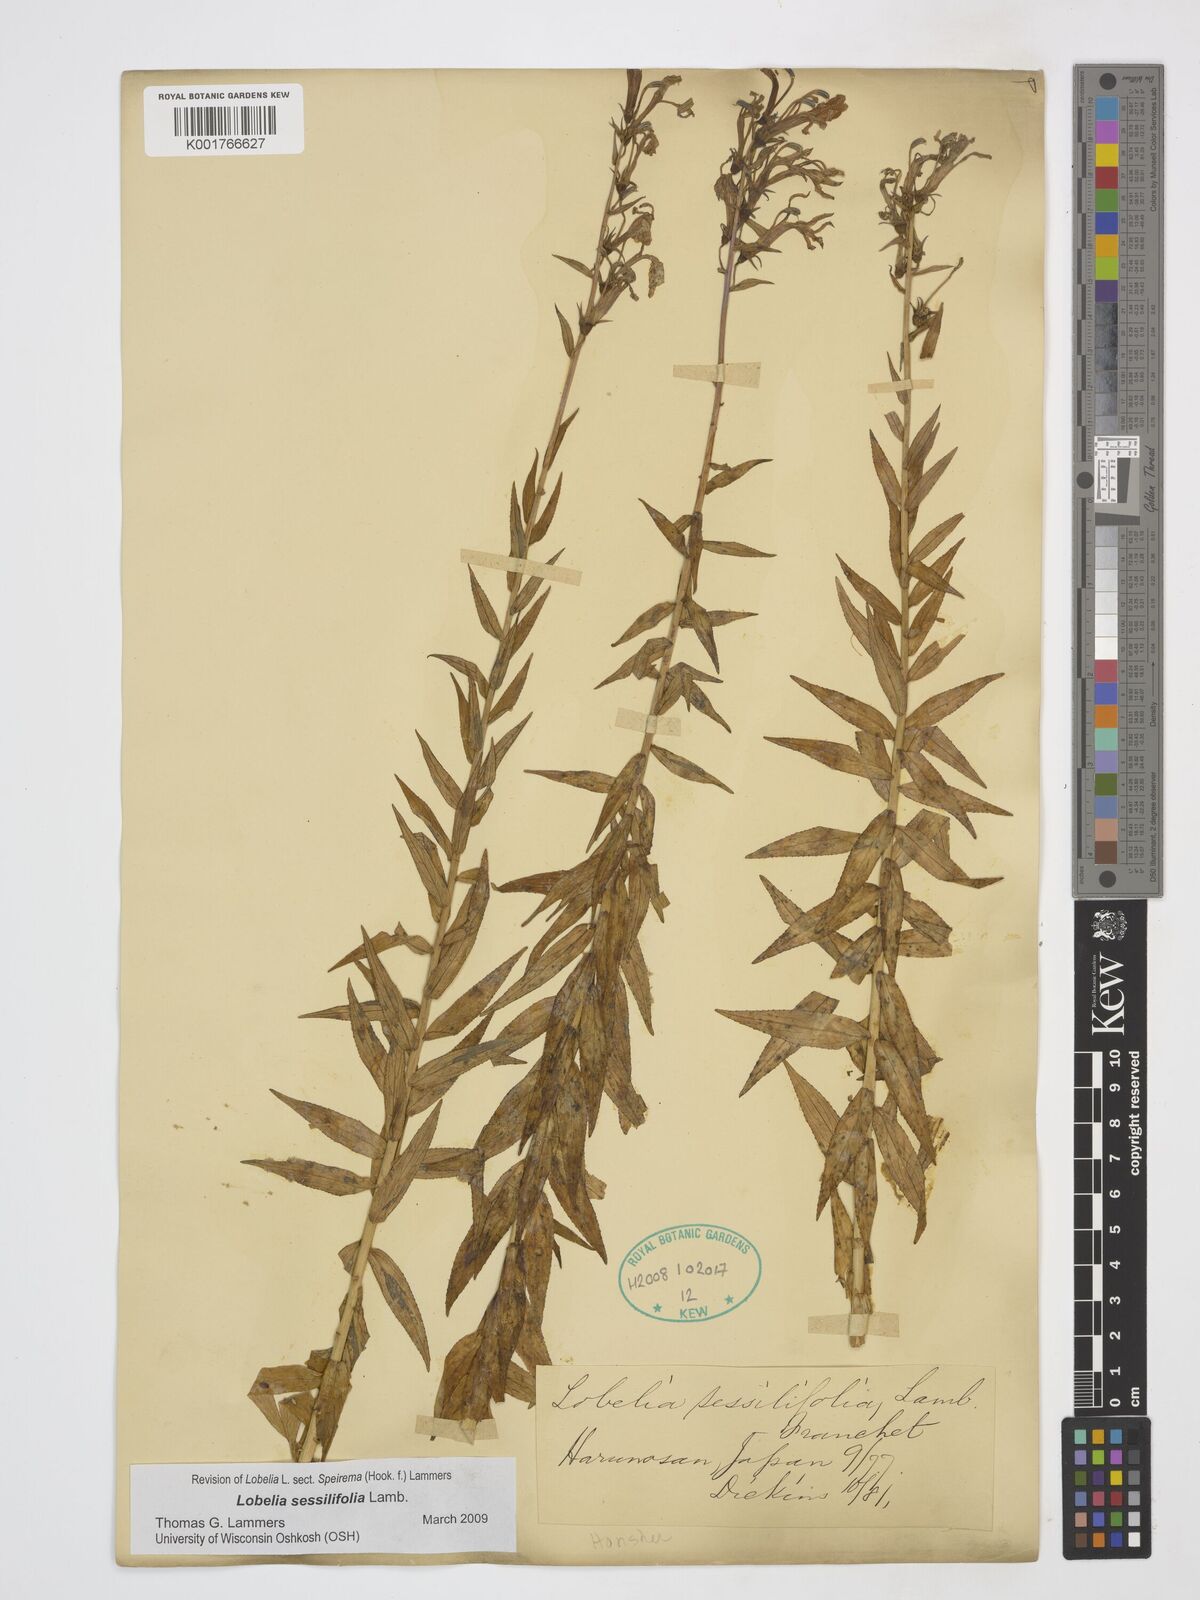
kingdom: Plantae
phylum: Tracheophyta
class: Magnoliopsida
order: Asterales
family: Campanulaceae
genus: Lobelia
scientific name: Lobelia sessilifolia
